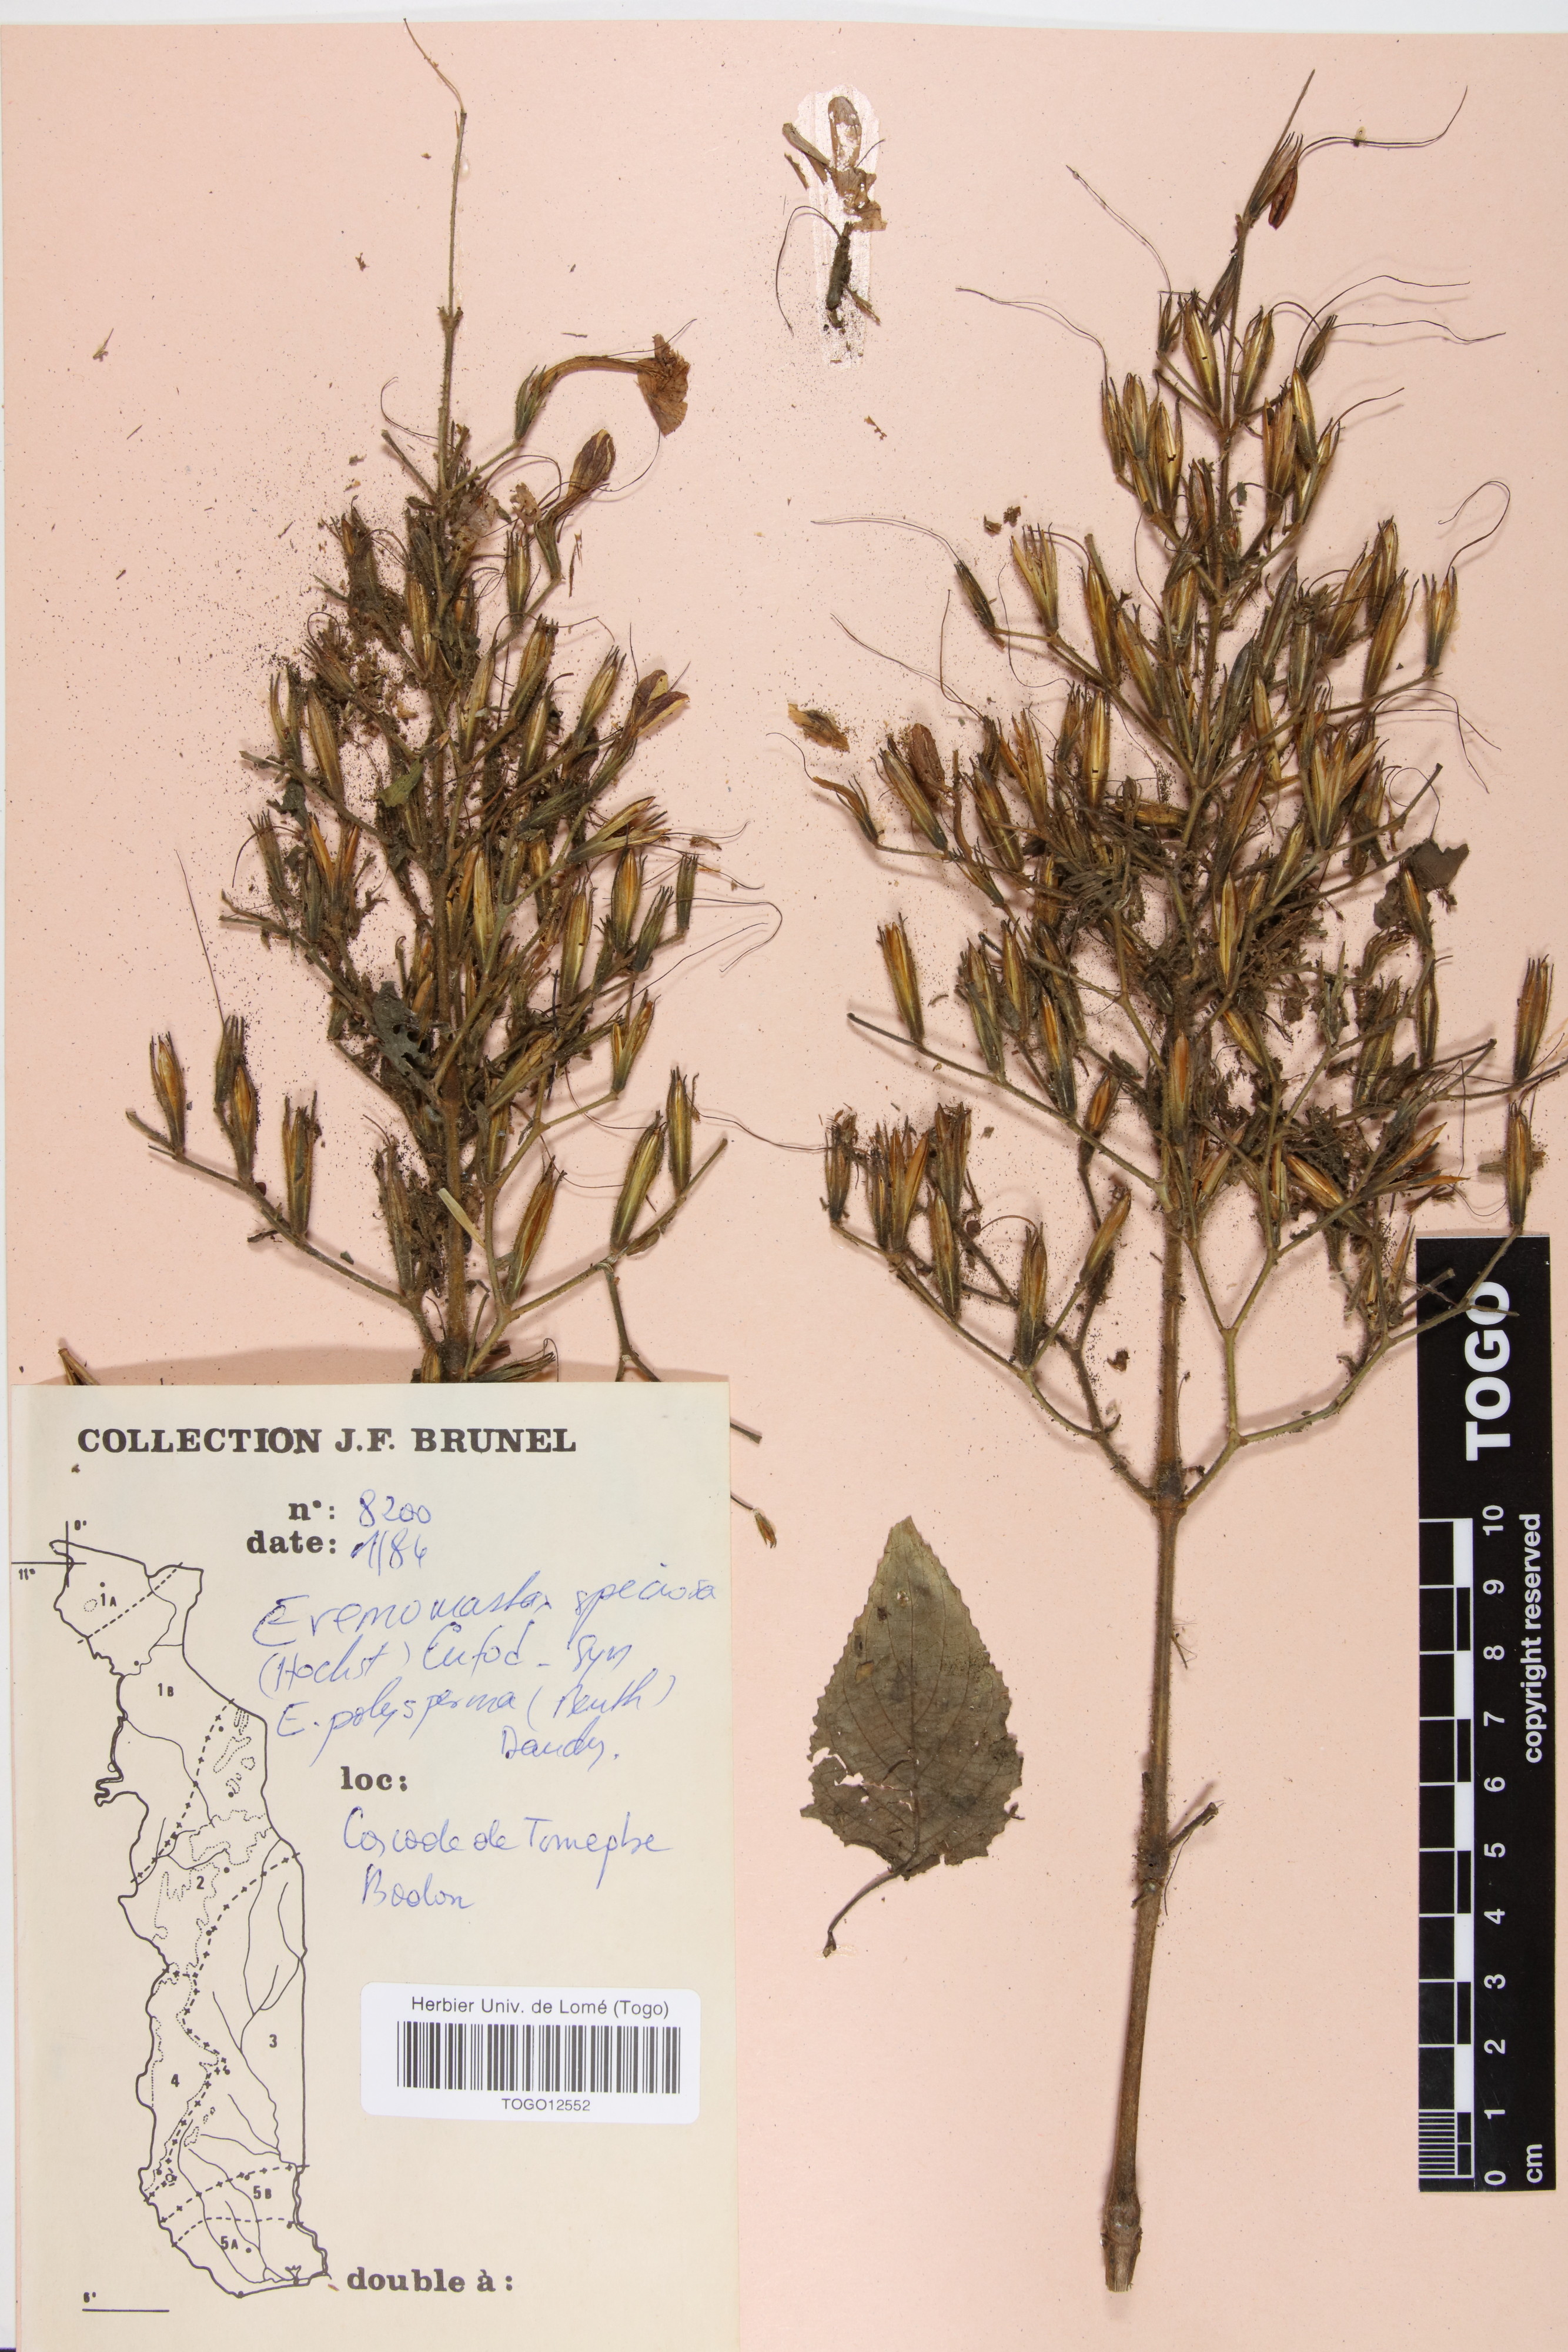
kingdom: Plantae
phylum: Tracheophyta
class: Magnoliopsida
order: Lamiales
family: Acanthaceae
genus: Eremomastax
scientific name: Eremomastax speciosa
